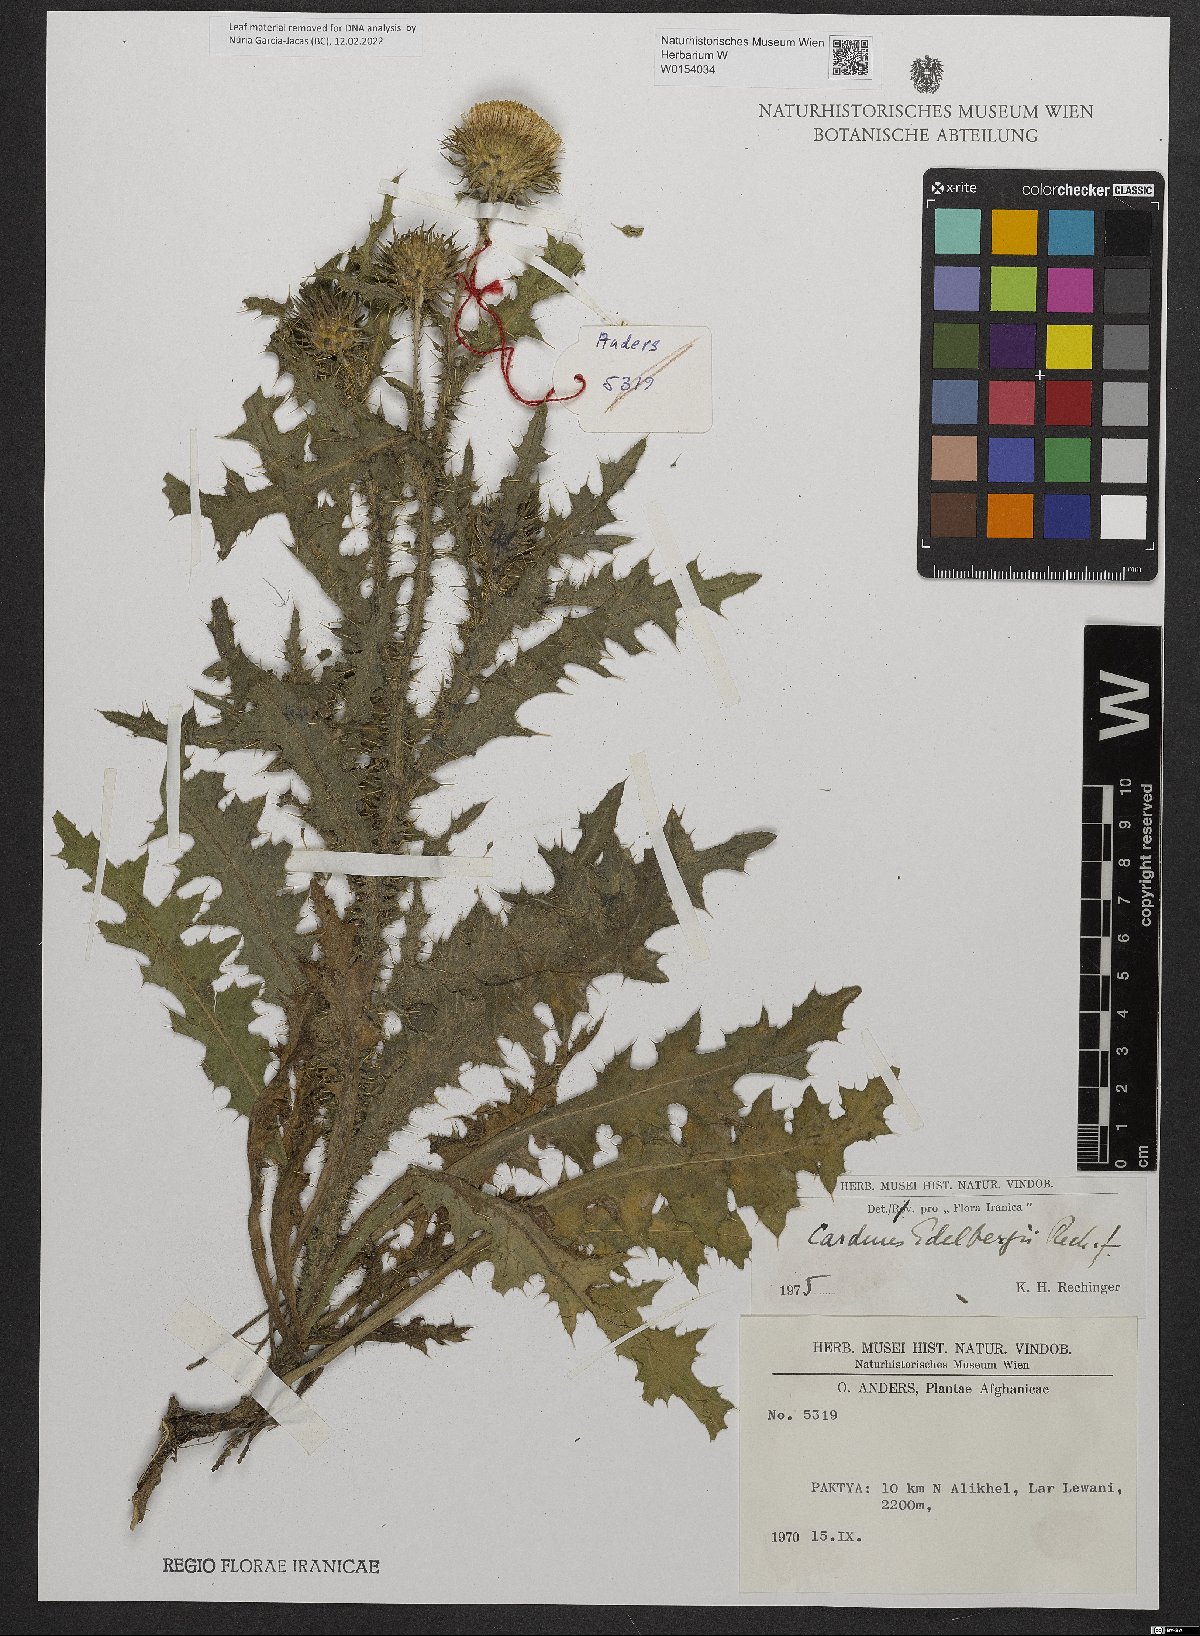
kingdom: Plantae
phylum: Tracheophyta
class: Magnoliopsida
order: Asterales
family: Asteraceae
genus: Carduus
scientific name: Carduus edelbergii
